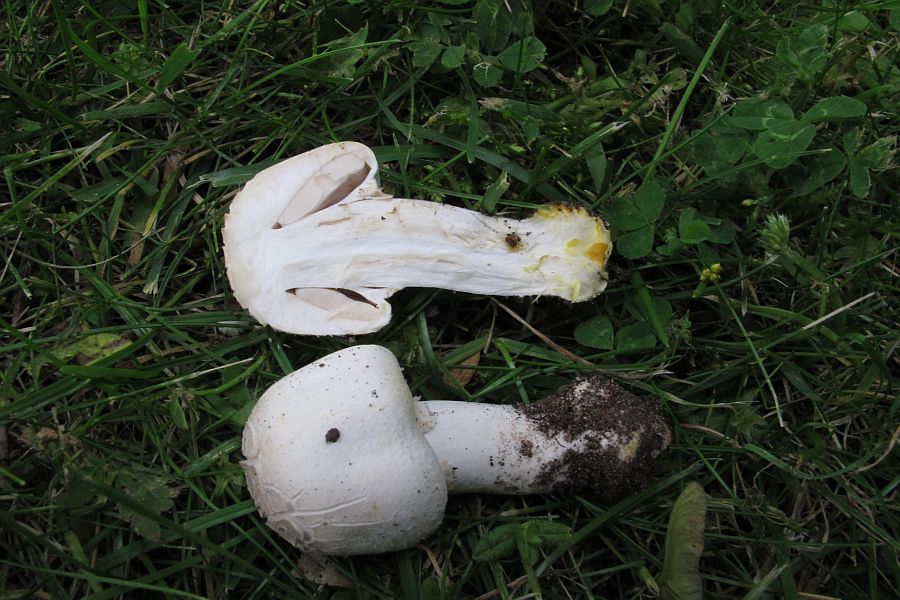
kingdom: Fungi
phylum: Basidiomycota
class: Agaricomycetes
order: Agaricales
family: Agaricaceae
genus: Agaricus
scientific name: Agaricus xanthodermus
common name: karbol-champignon
